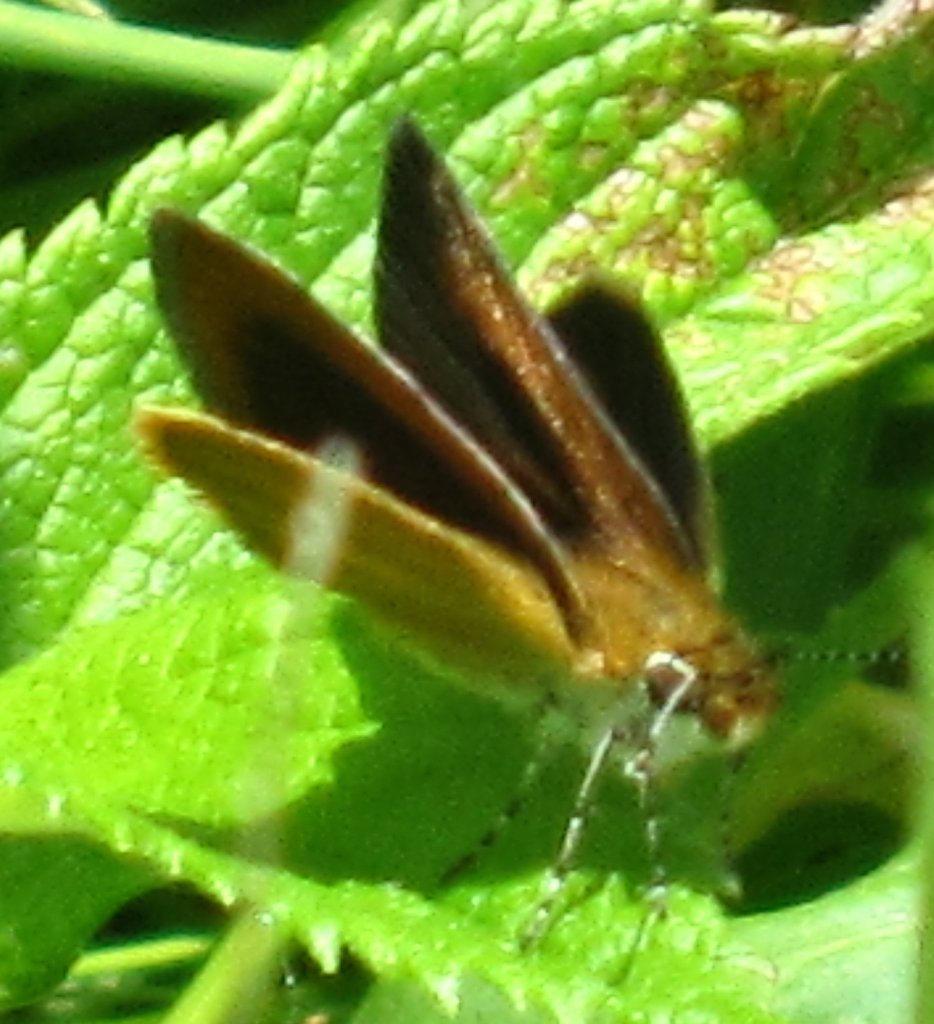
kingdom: Animalia
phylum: Arthropoda
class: Insecta
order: Lepidoptera
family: Hesperiidae
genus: Ancyloxypha
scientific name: Ancyloxypha numitor
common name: Least Skipper
